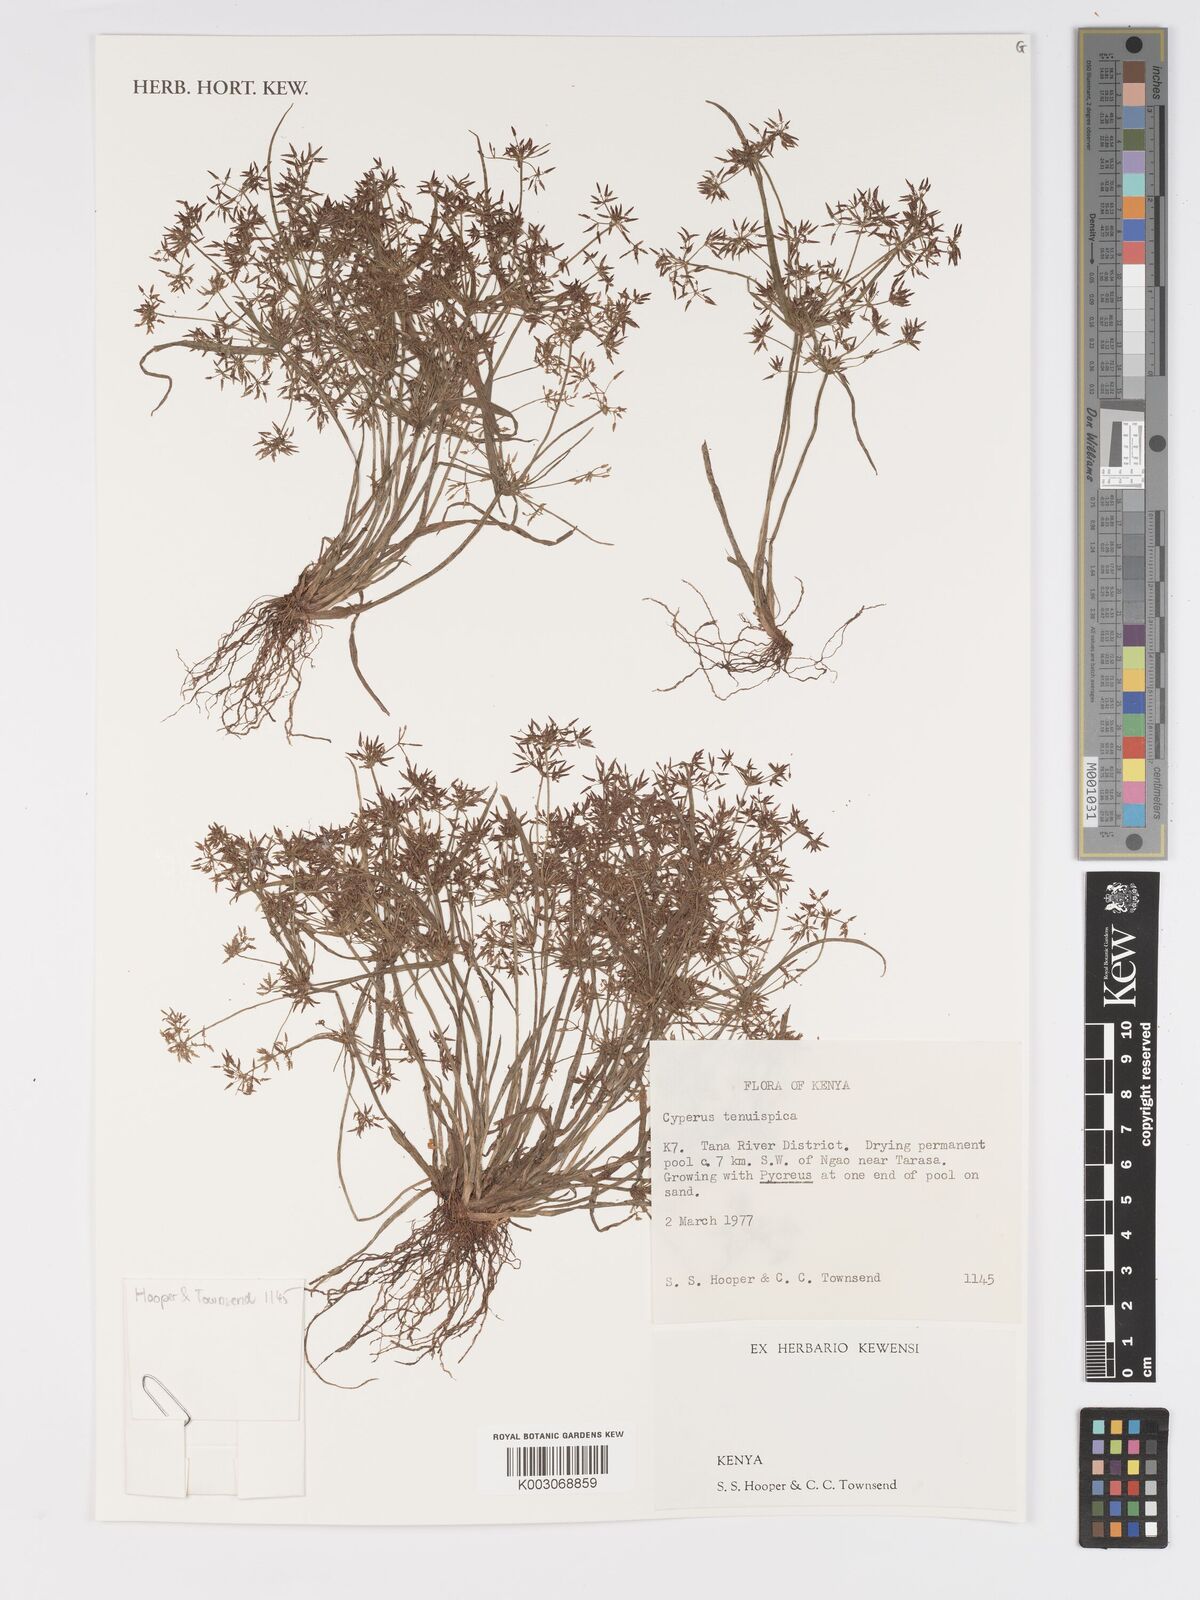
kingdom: Plantae
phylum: Tracheophyta
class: Liliopsida
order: Poales
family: Cyperaceae
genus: Cyperus
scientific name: Cyperus tenuispica
